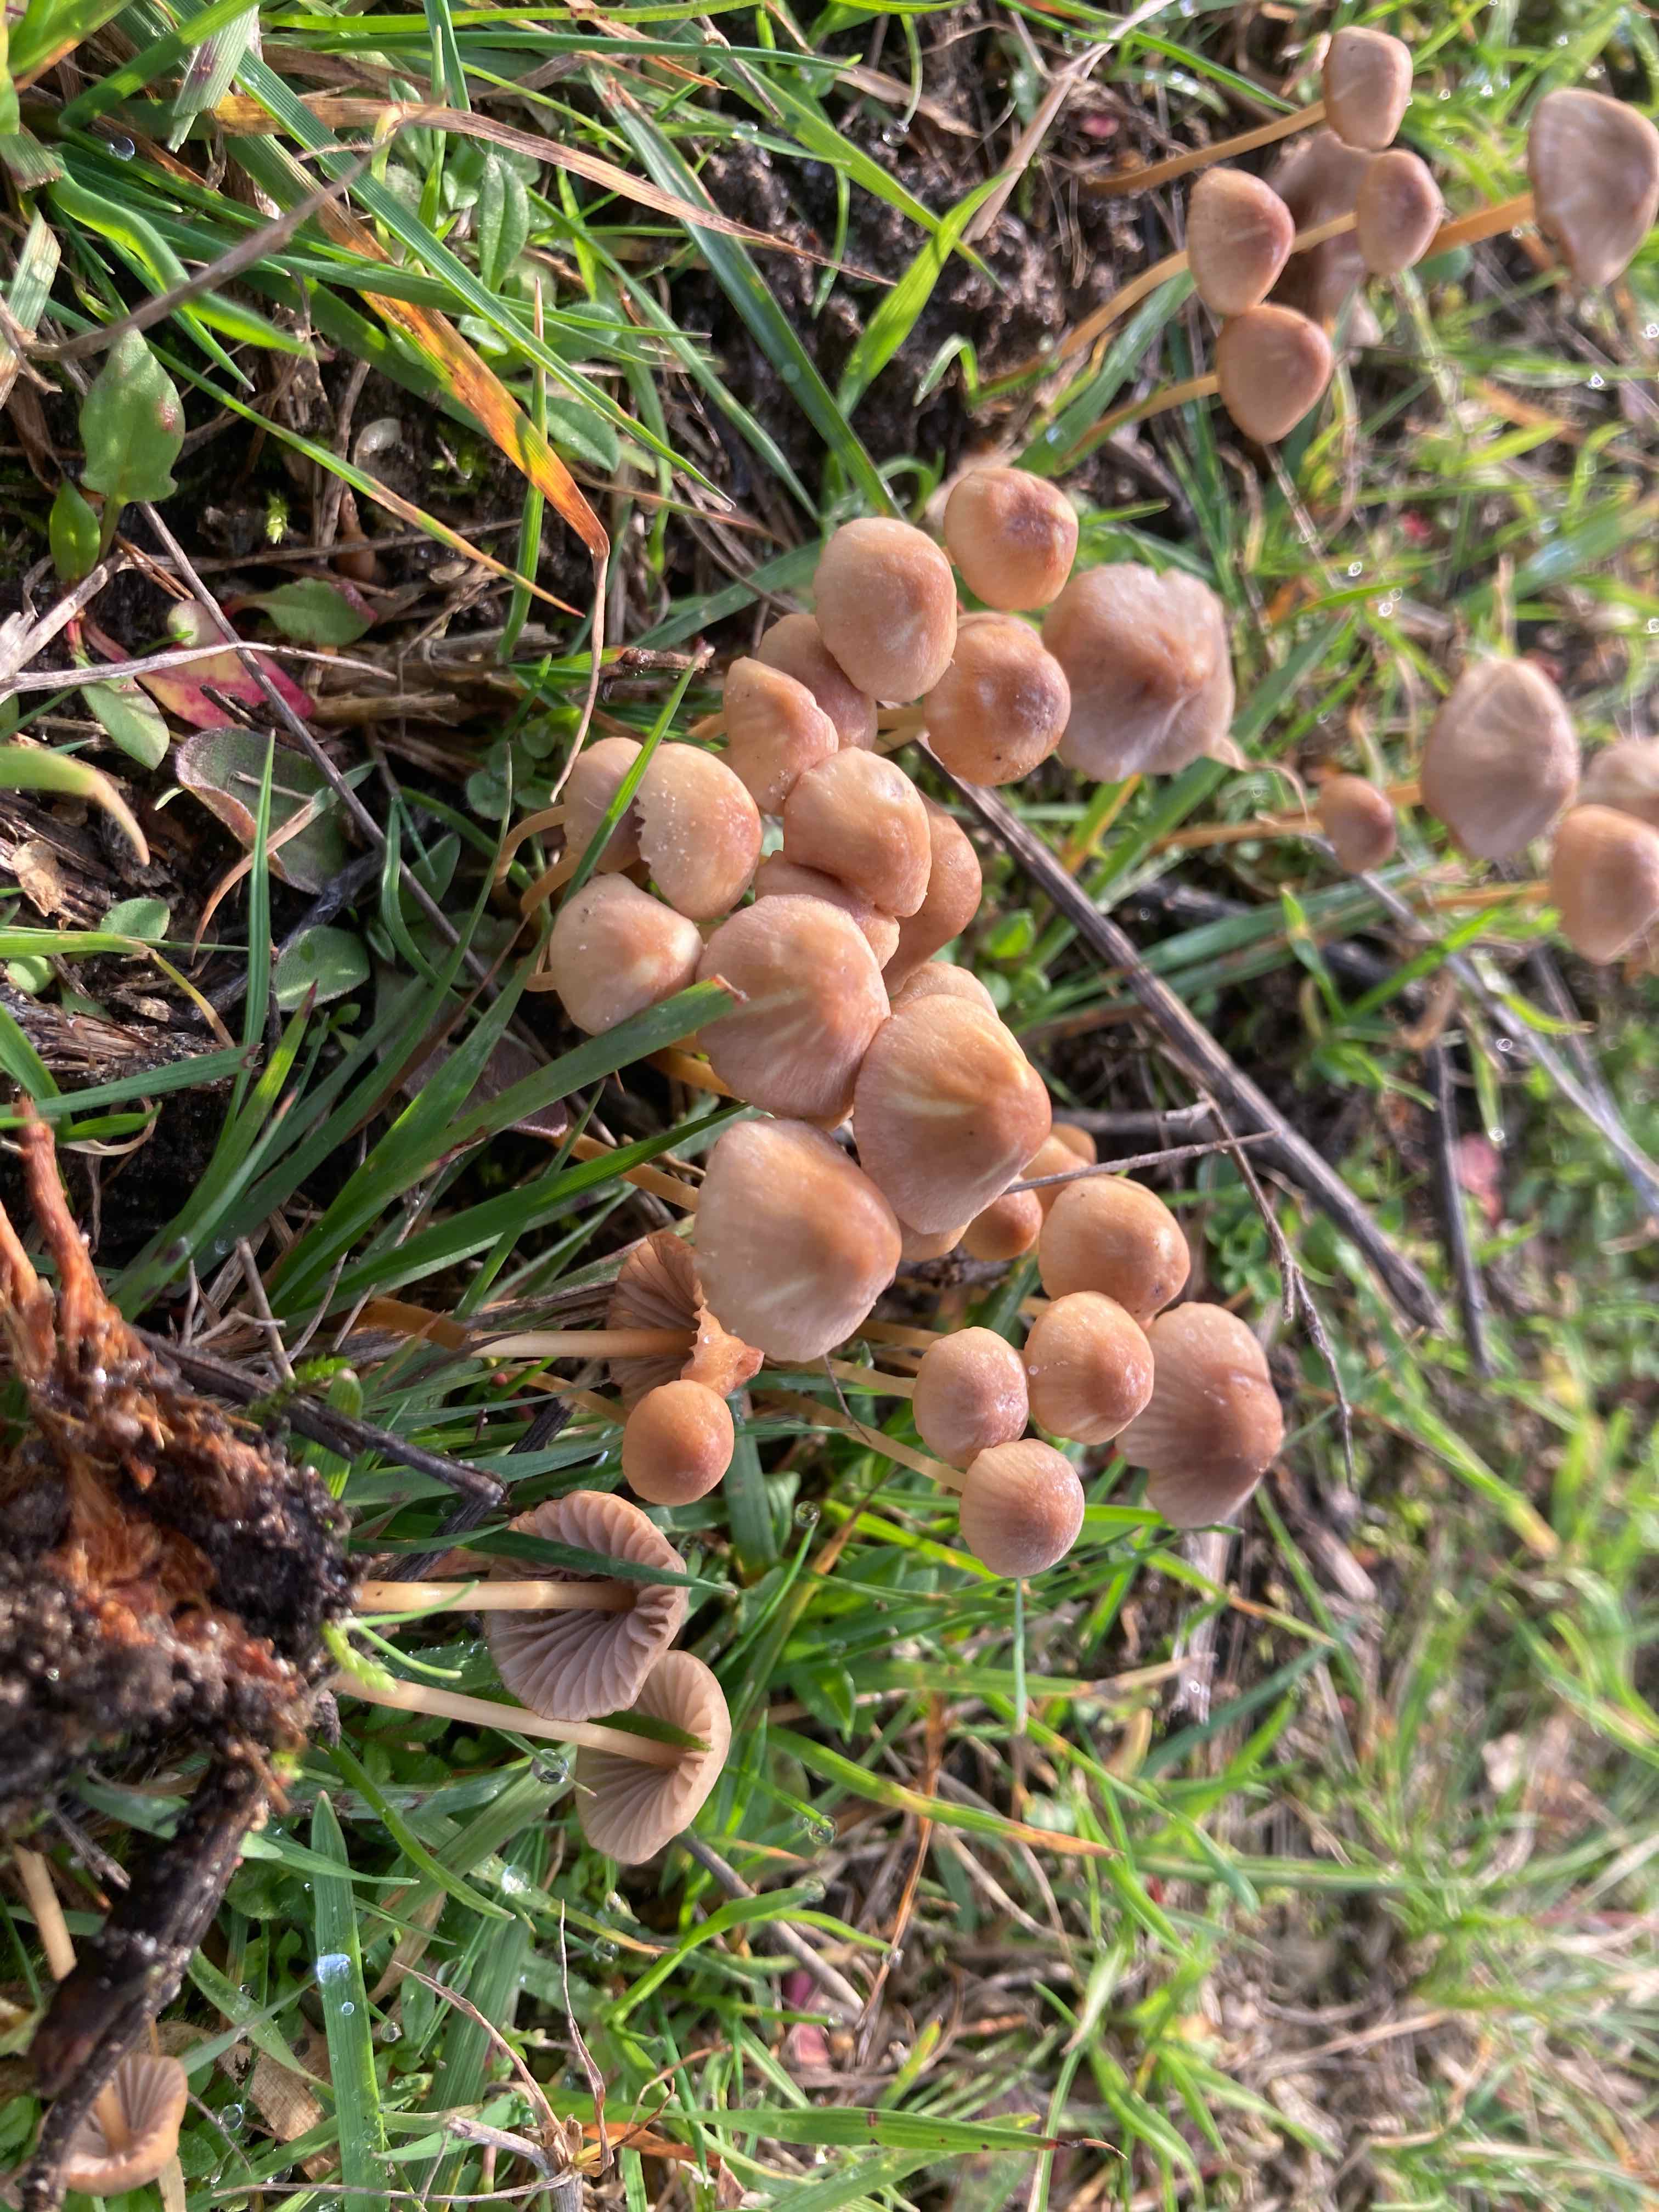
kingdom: Fungi
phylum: Basidiomycota
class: Agaricomycetes
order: Agaricales
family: Mycenaceae
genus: Mycena
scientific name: Mycena olivaceomarginata
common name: brunægget huesvamp
